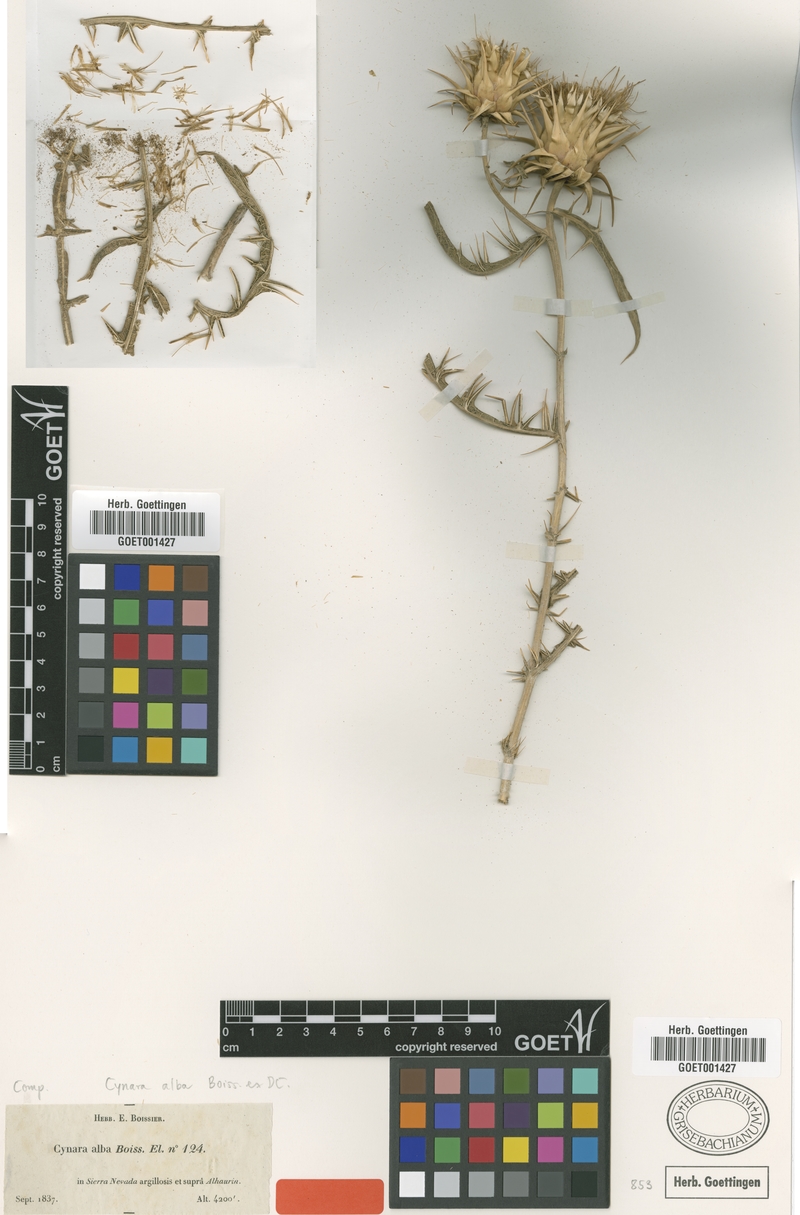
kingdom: Plantae
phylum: Tracheophyta
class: Magnoliopsida
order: Asterales
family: Asteraceae
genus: Cynara
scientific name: Cynara baetica
